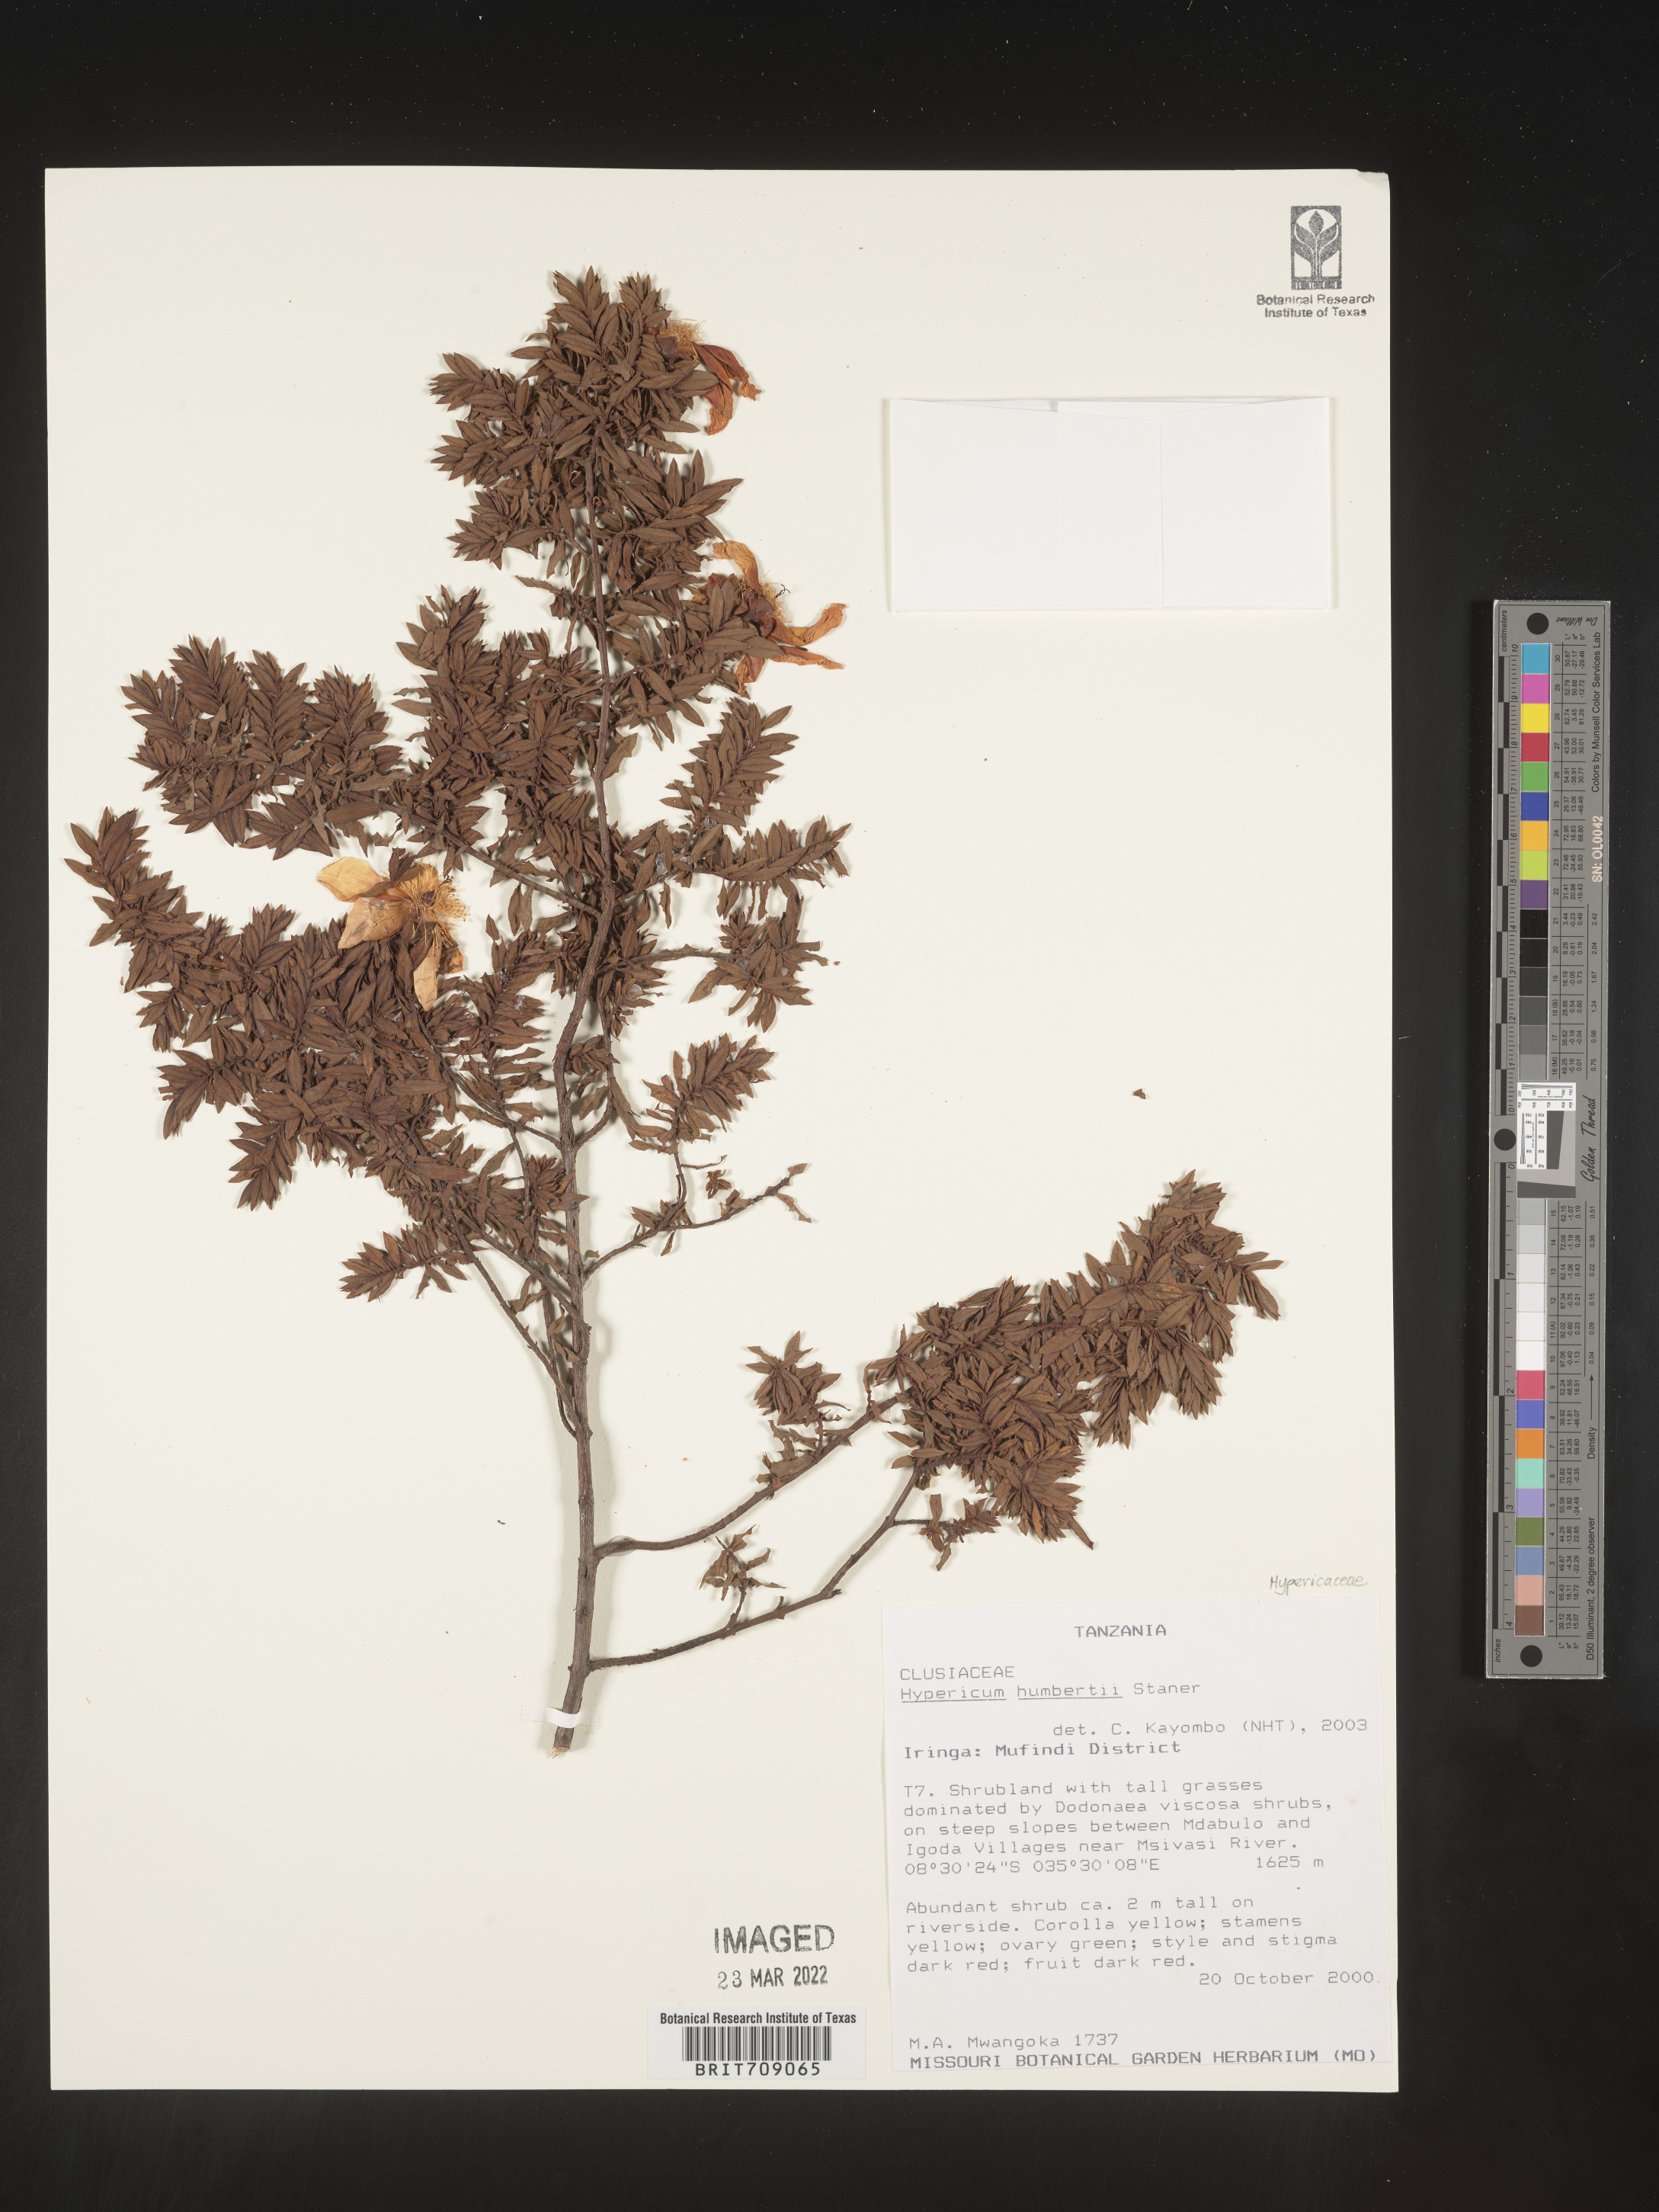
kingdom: Plantae
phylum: Tracheophyta
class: Magnoliopsida
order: Malpighiales
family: Hypericaceae
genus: Hypericum
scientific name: Hypericum
